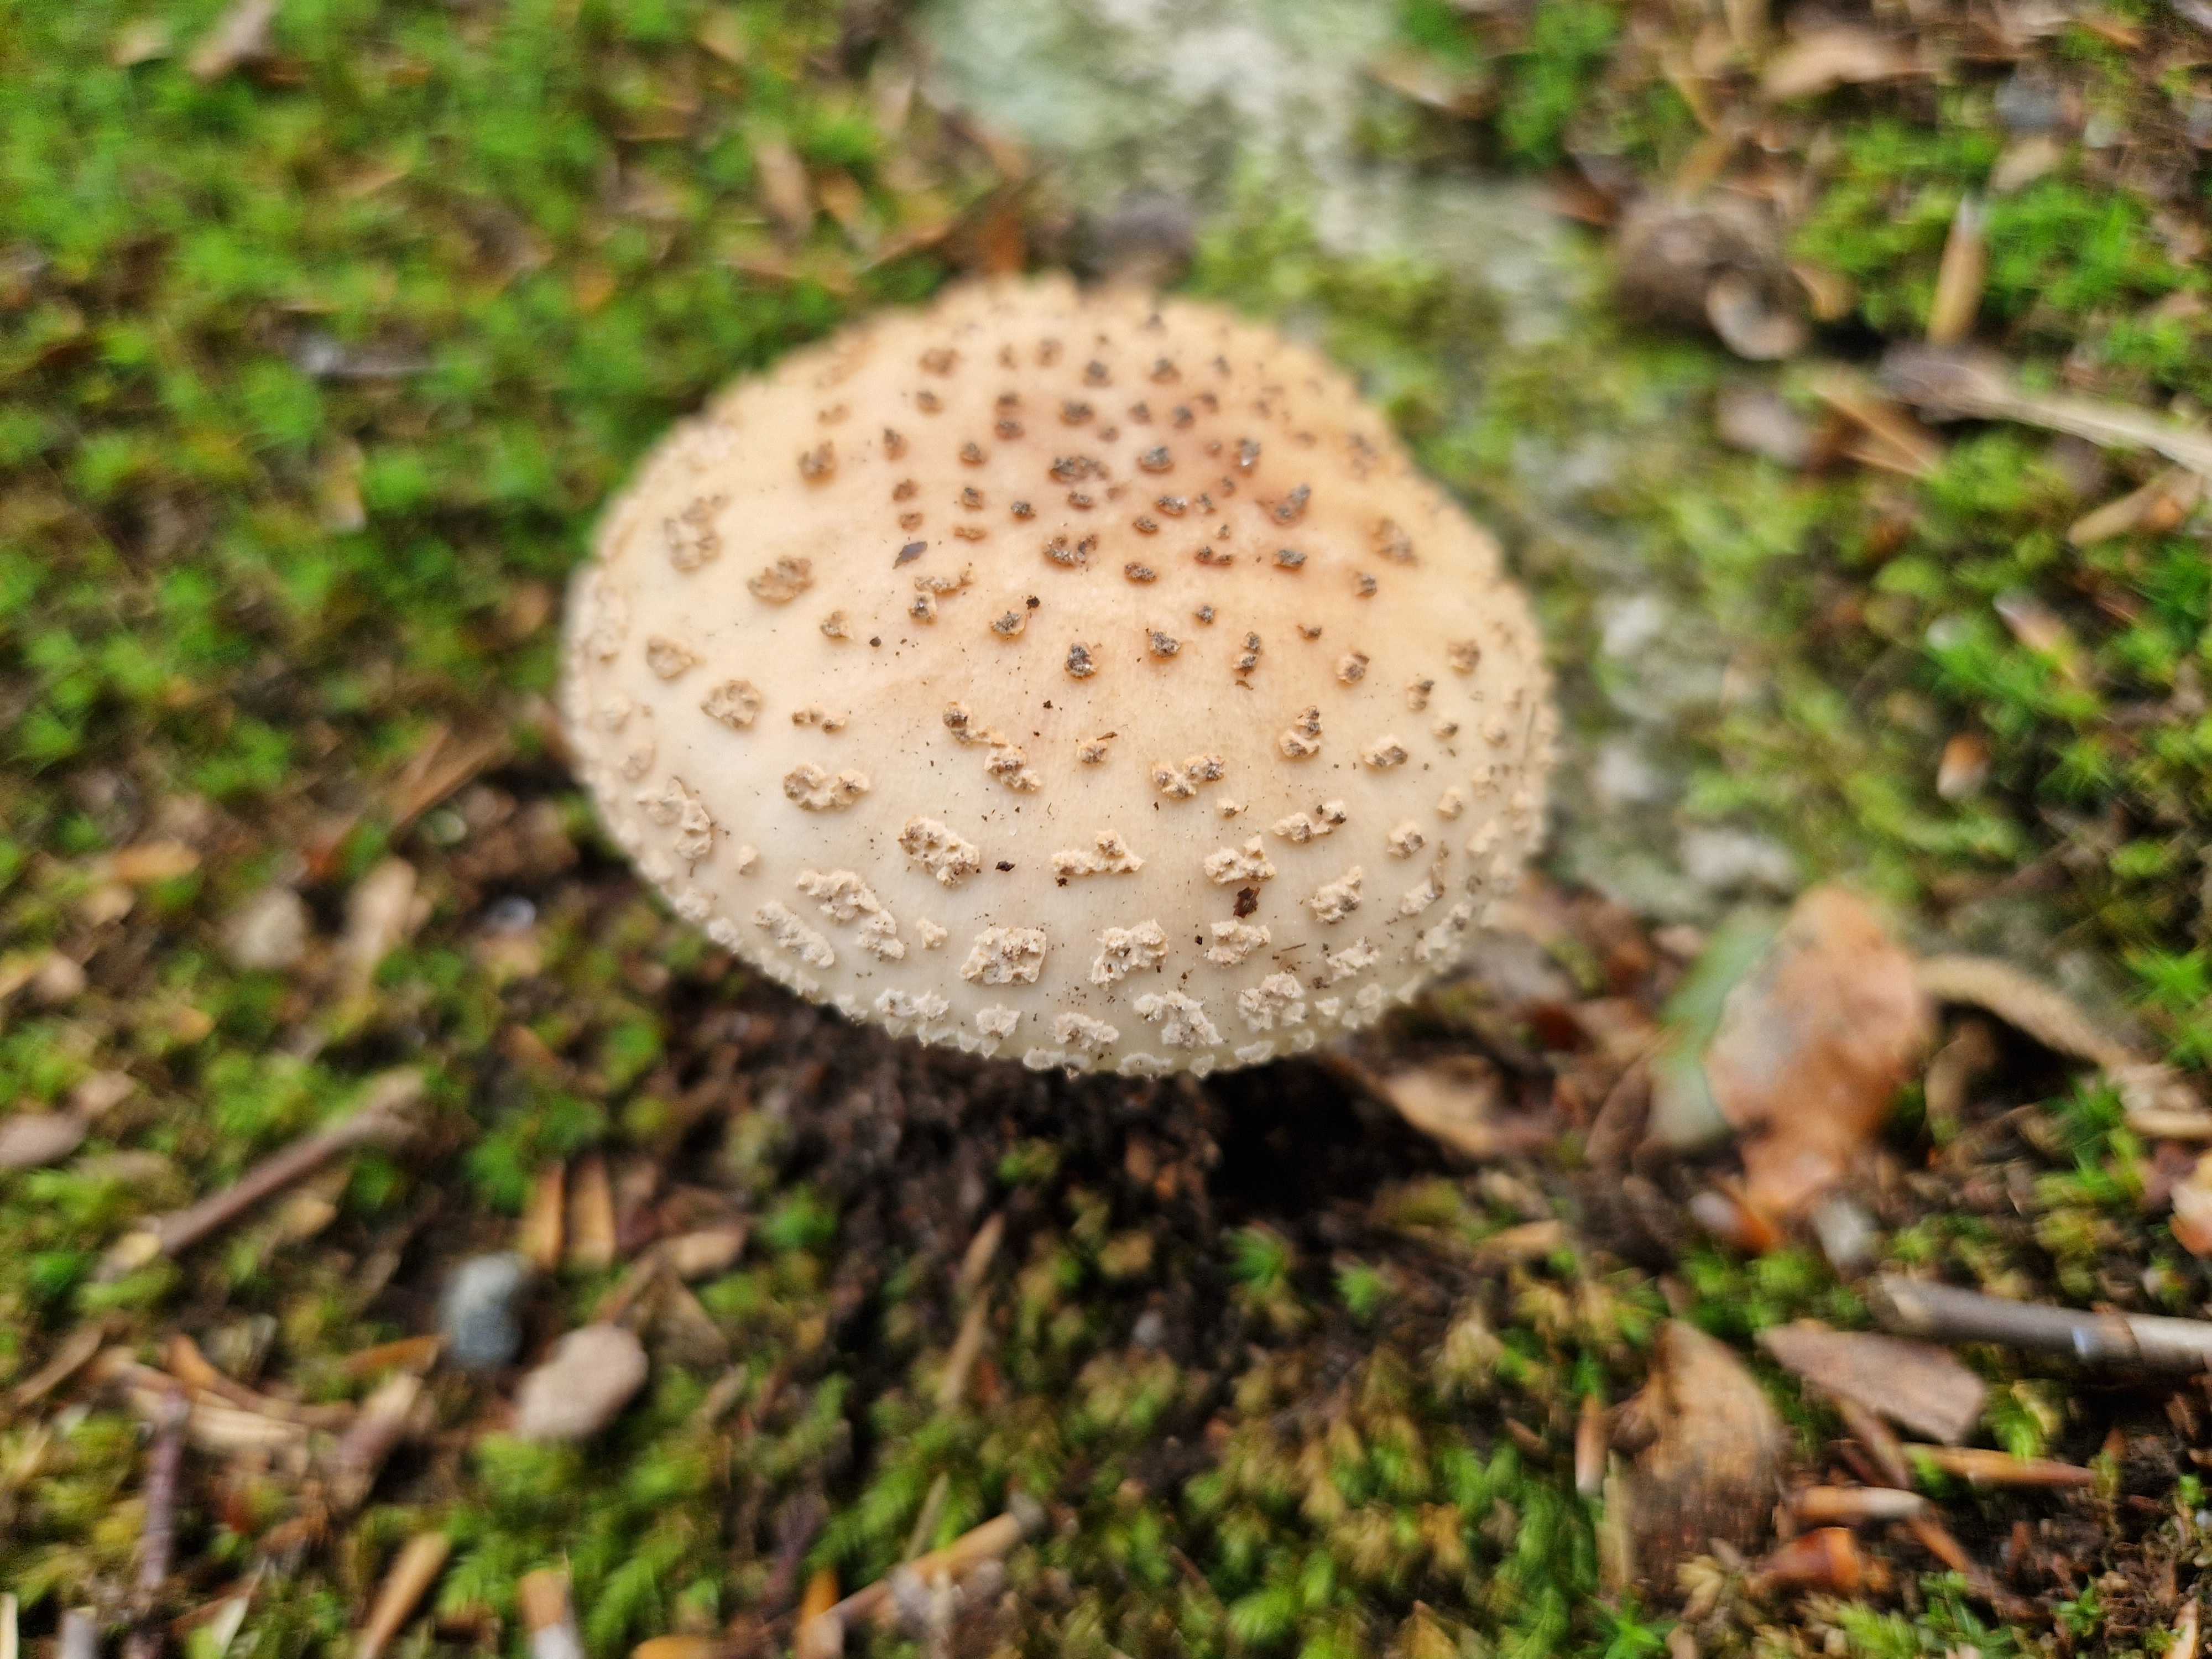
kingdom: Fungi
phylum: Basidiomycota
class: Agaricomycetes
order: Agaricales
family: Amanitaceae
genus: Amanita
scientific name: Amanita rubescens
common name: rødmende fluesvamp
